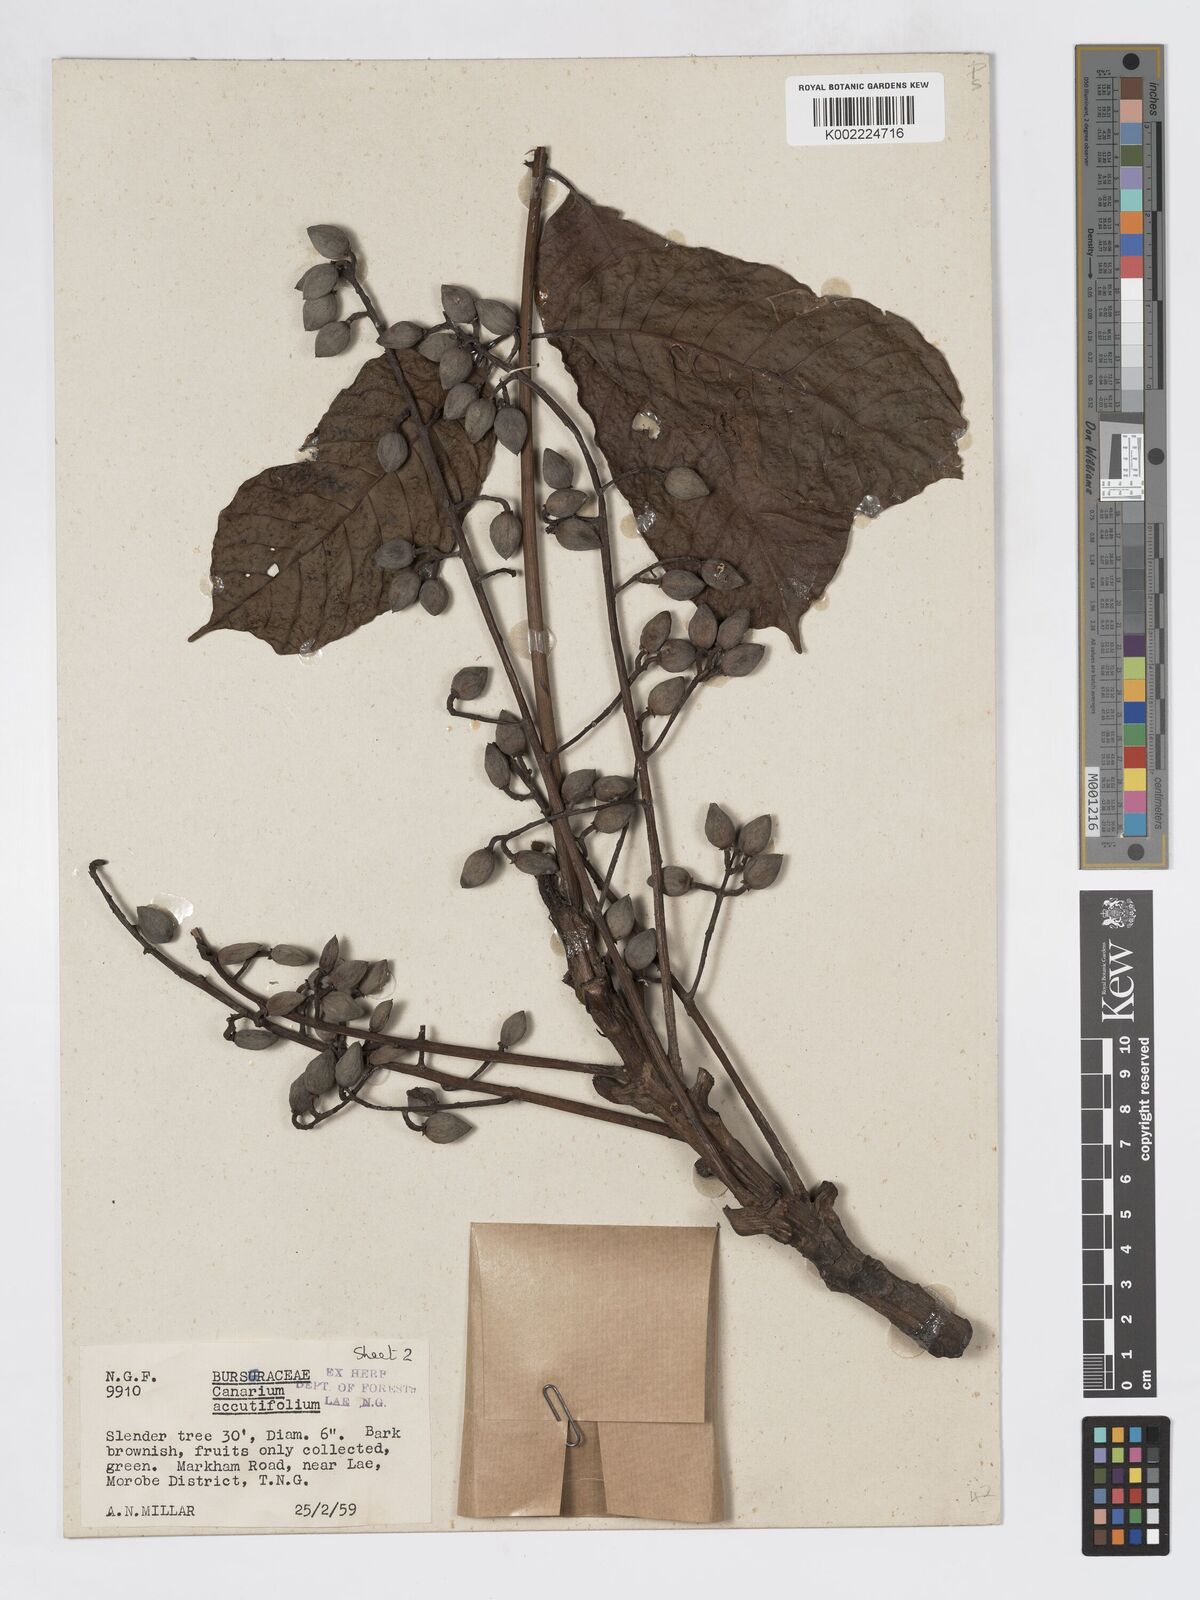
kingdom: Plantae
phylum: Tracheophyta
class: Magnoliopsida
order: Sapindales
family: Burseraceae
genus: Canarium
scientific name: Canarium acutifolium
